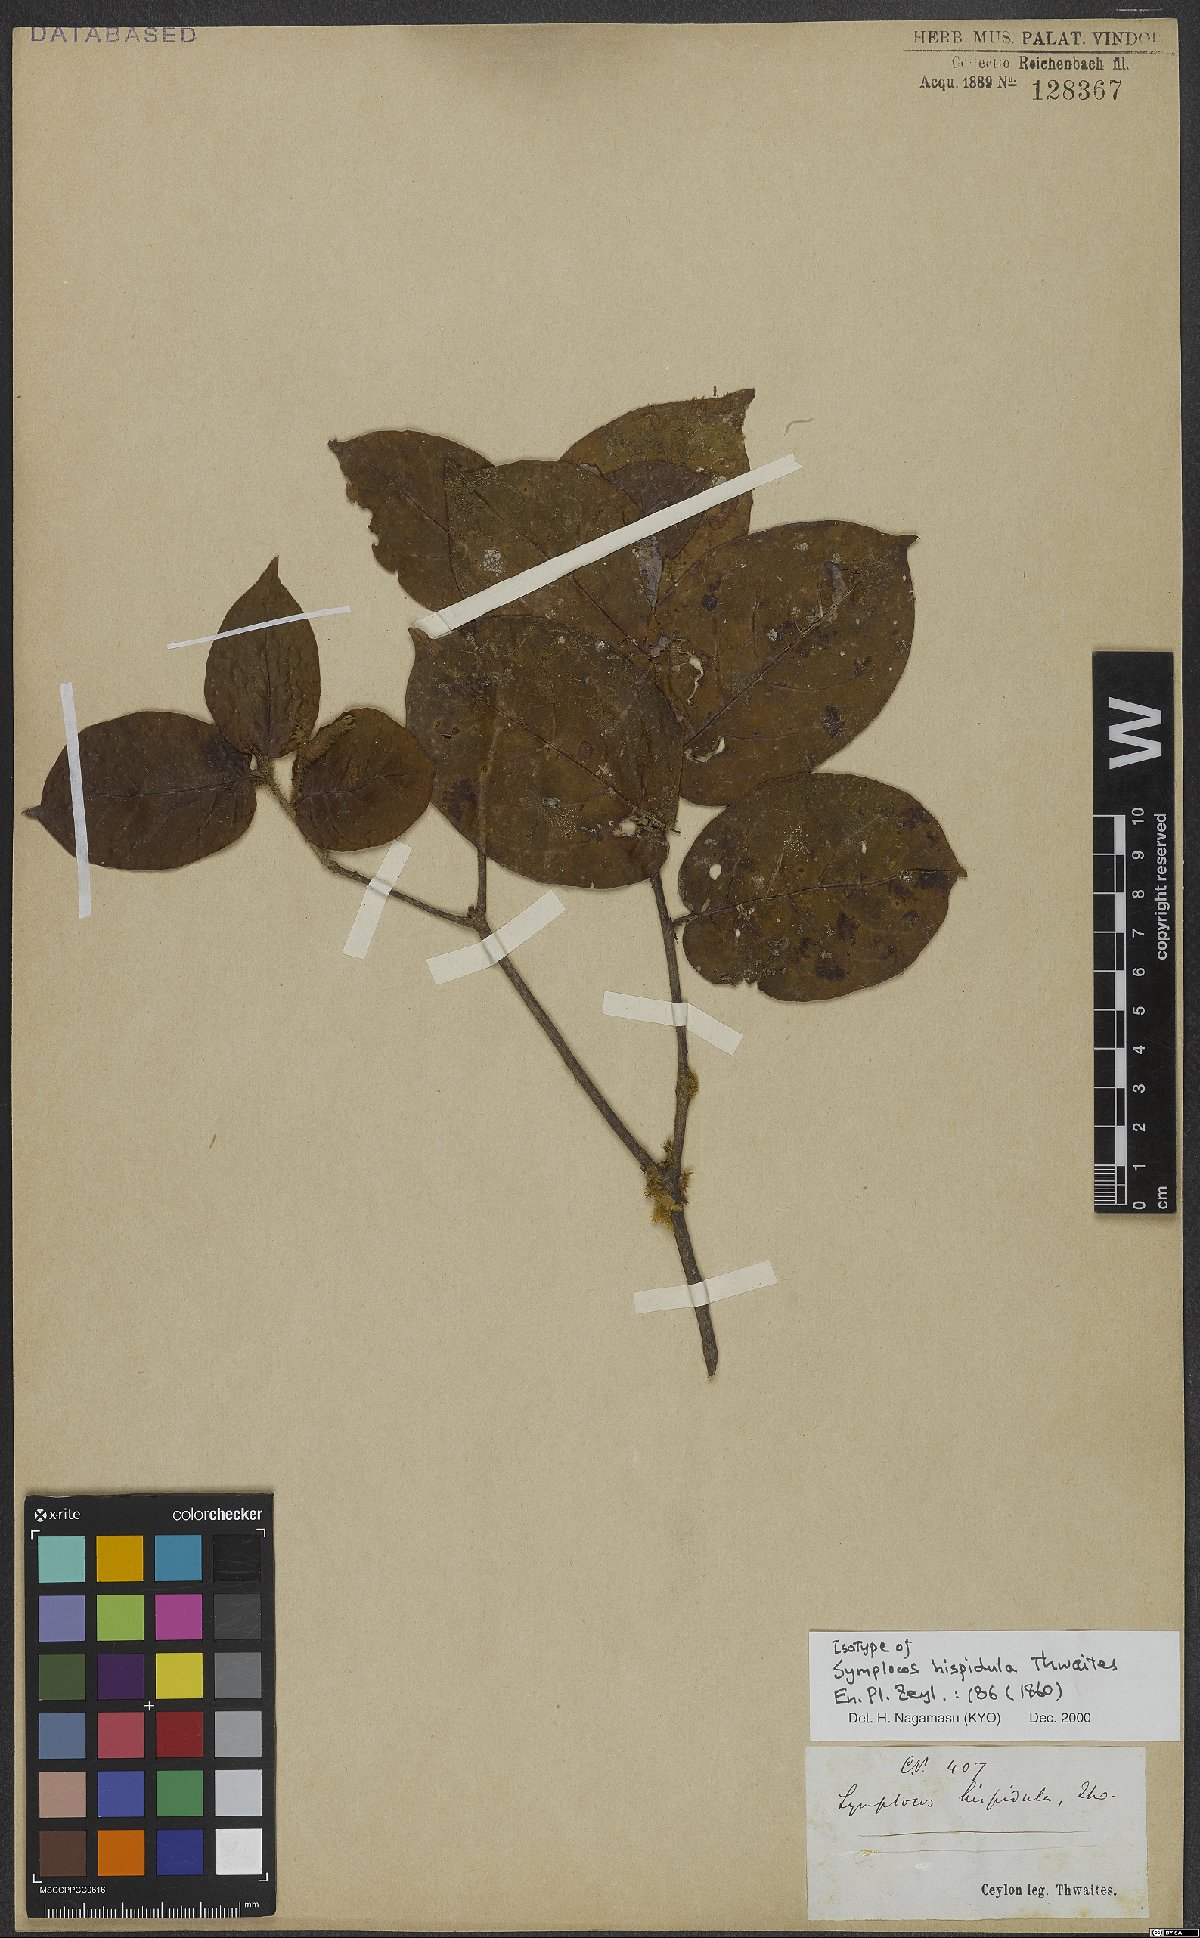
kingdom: Plantae
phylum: Tracheophyta
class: Magnoliopsida
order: Ericales
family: Symplocaceae
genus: Symplocos
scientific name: Symplocos pulchra
